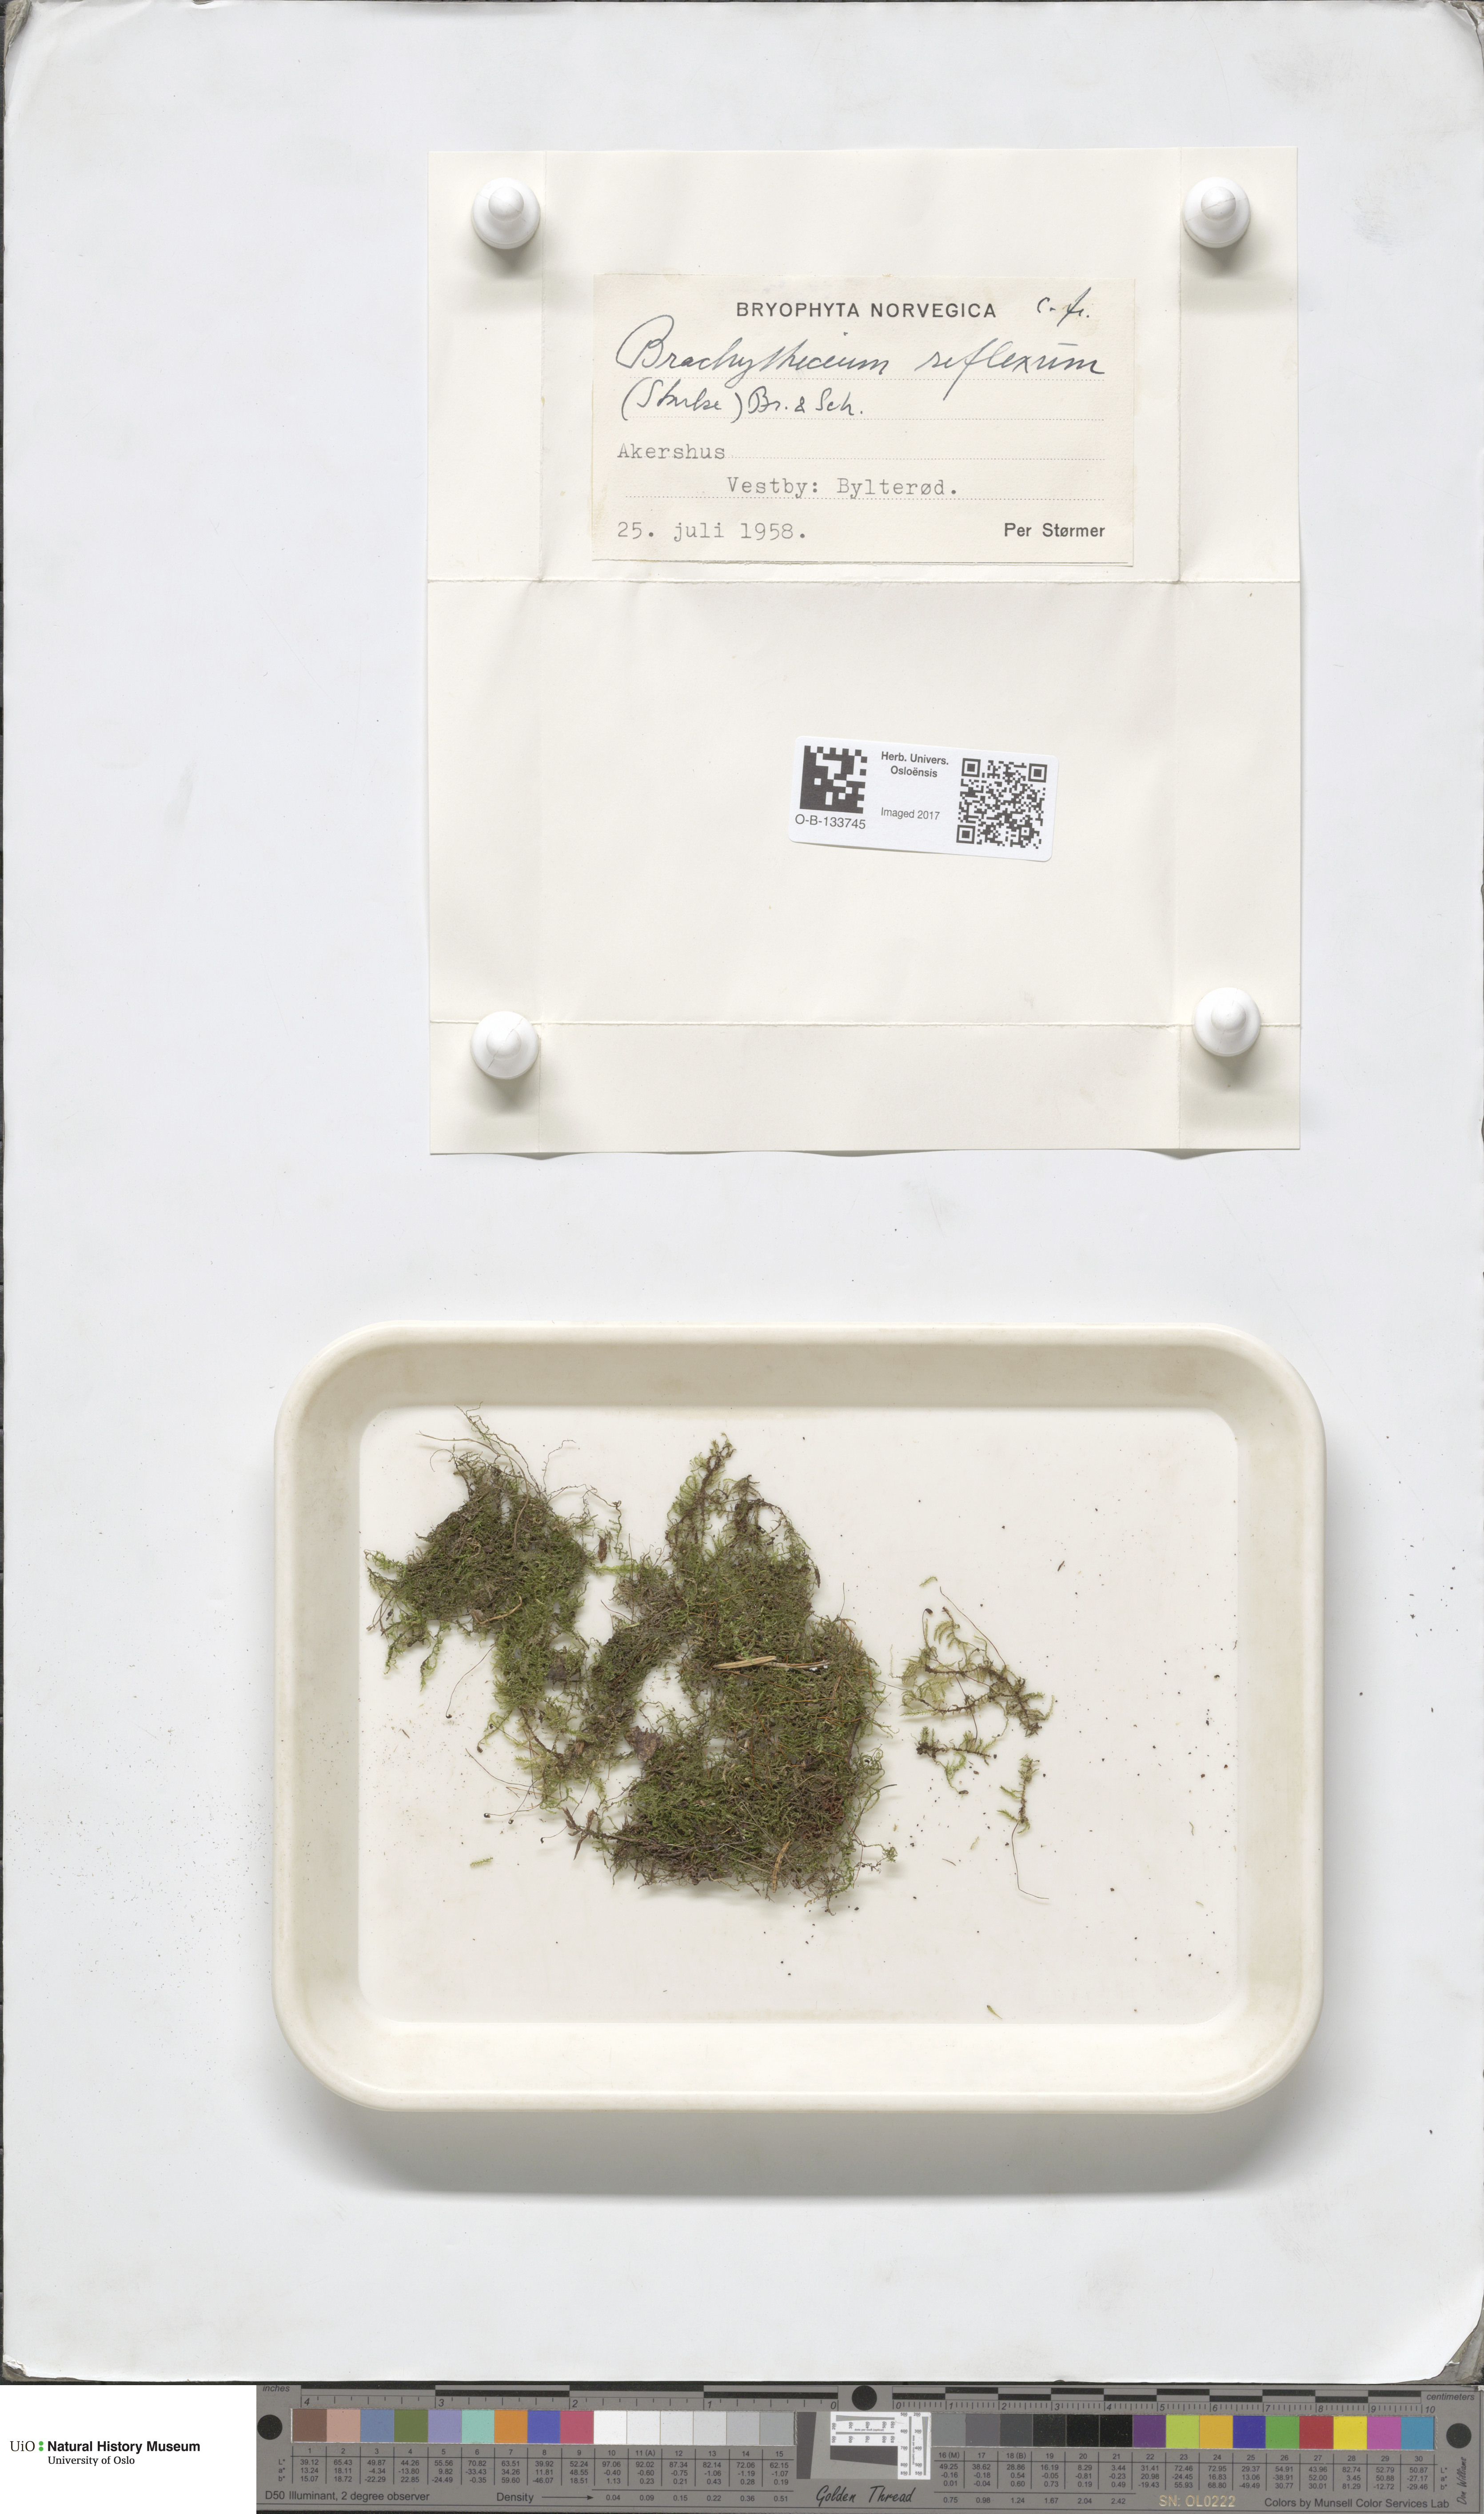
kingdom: Plantae
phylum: Bryophyta
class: Bryopsida
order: Hypnales
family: Brachytheciaceae
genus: Sciuro-hypnum
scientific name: Sciuro-hypnum reflexum
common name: Reflexed feather-moss
